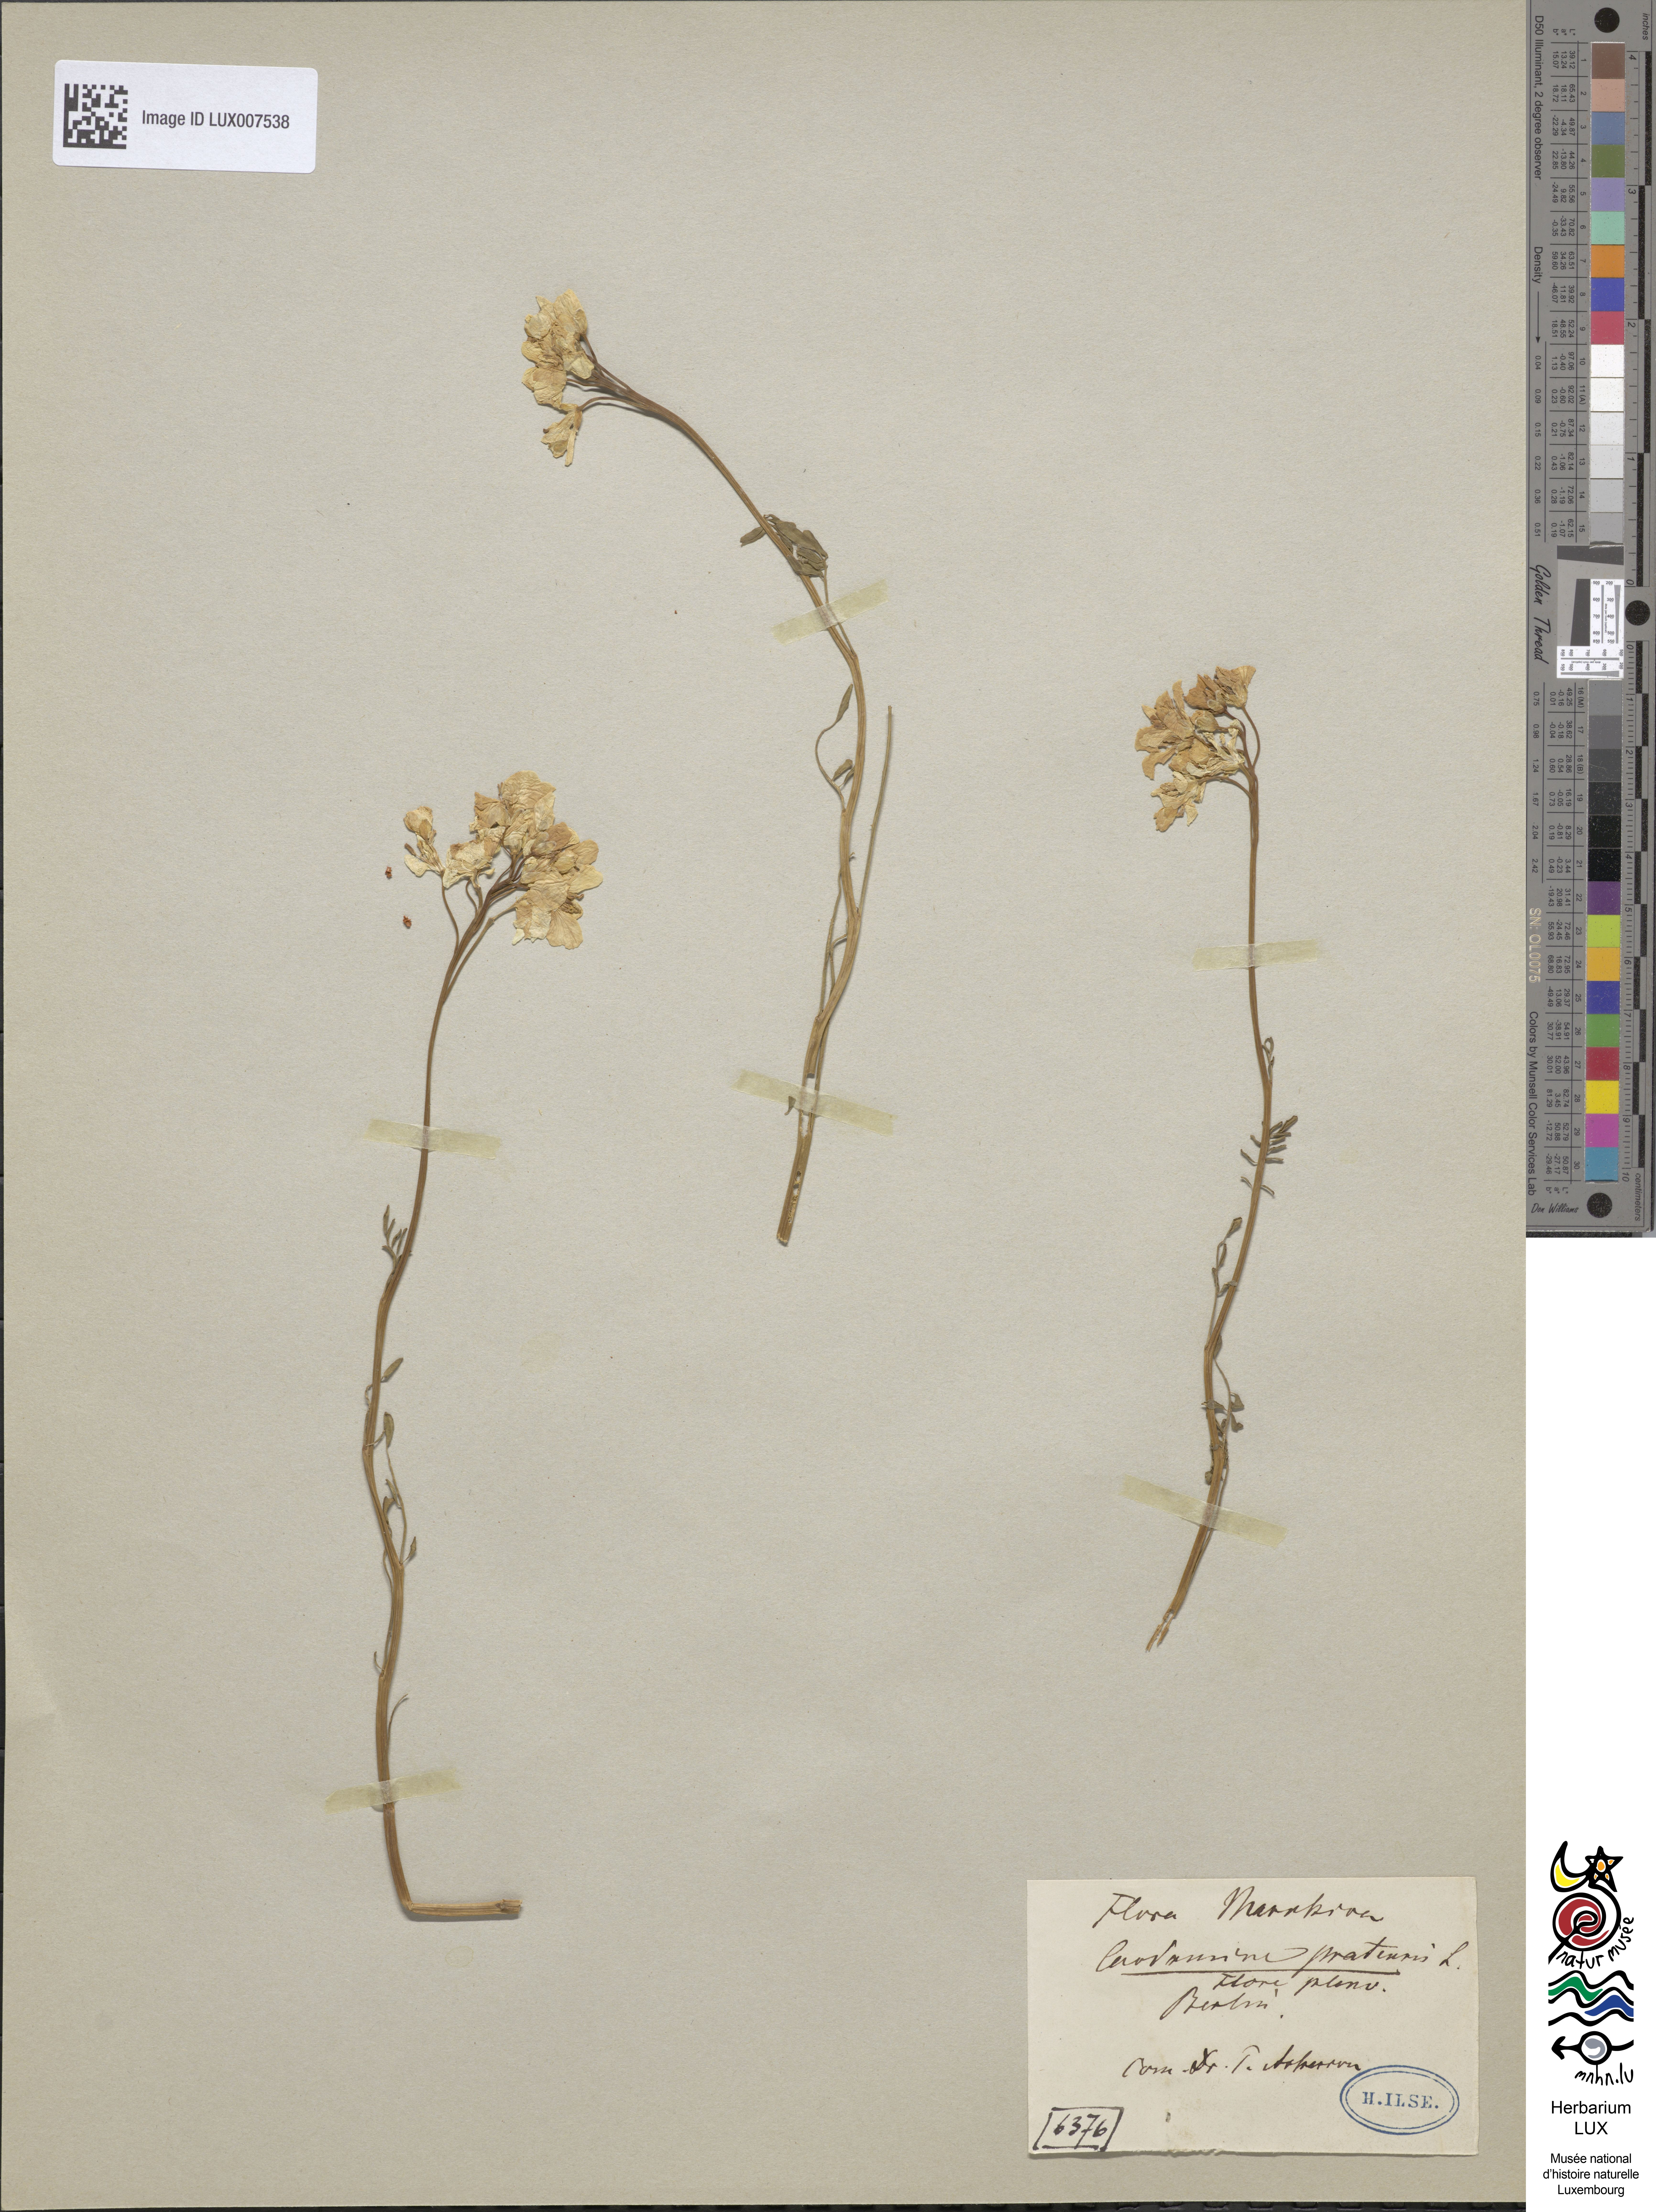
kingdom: Plantae
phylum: Tracheophyta
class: Magnoliopsida
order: Brassicales
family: Brassicaceae
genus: Cardamine
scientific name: Cardamine pratensis
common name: Cuckoo flower
